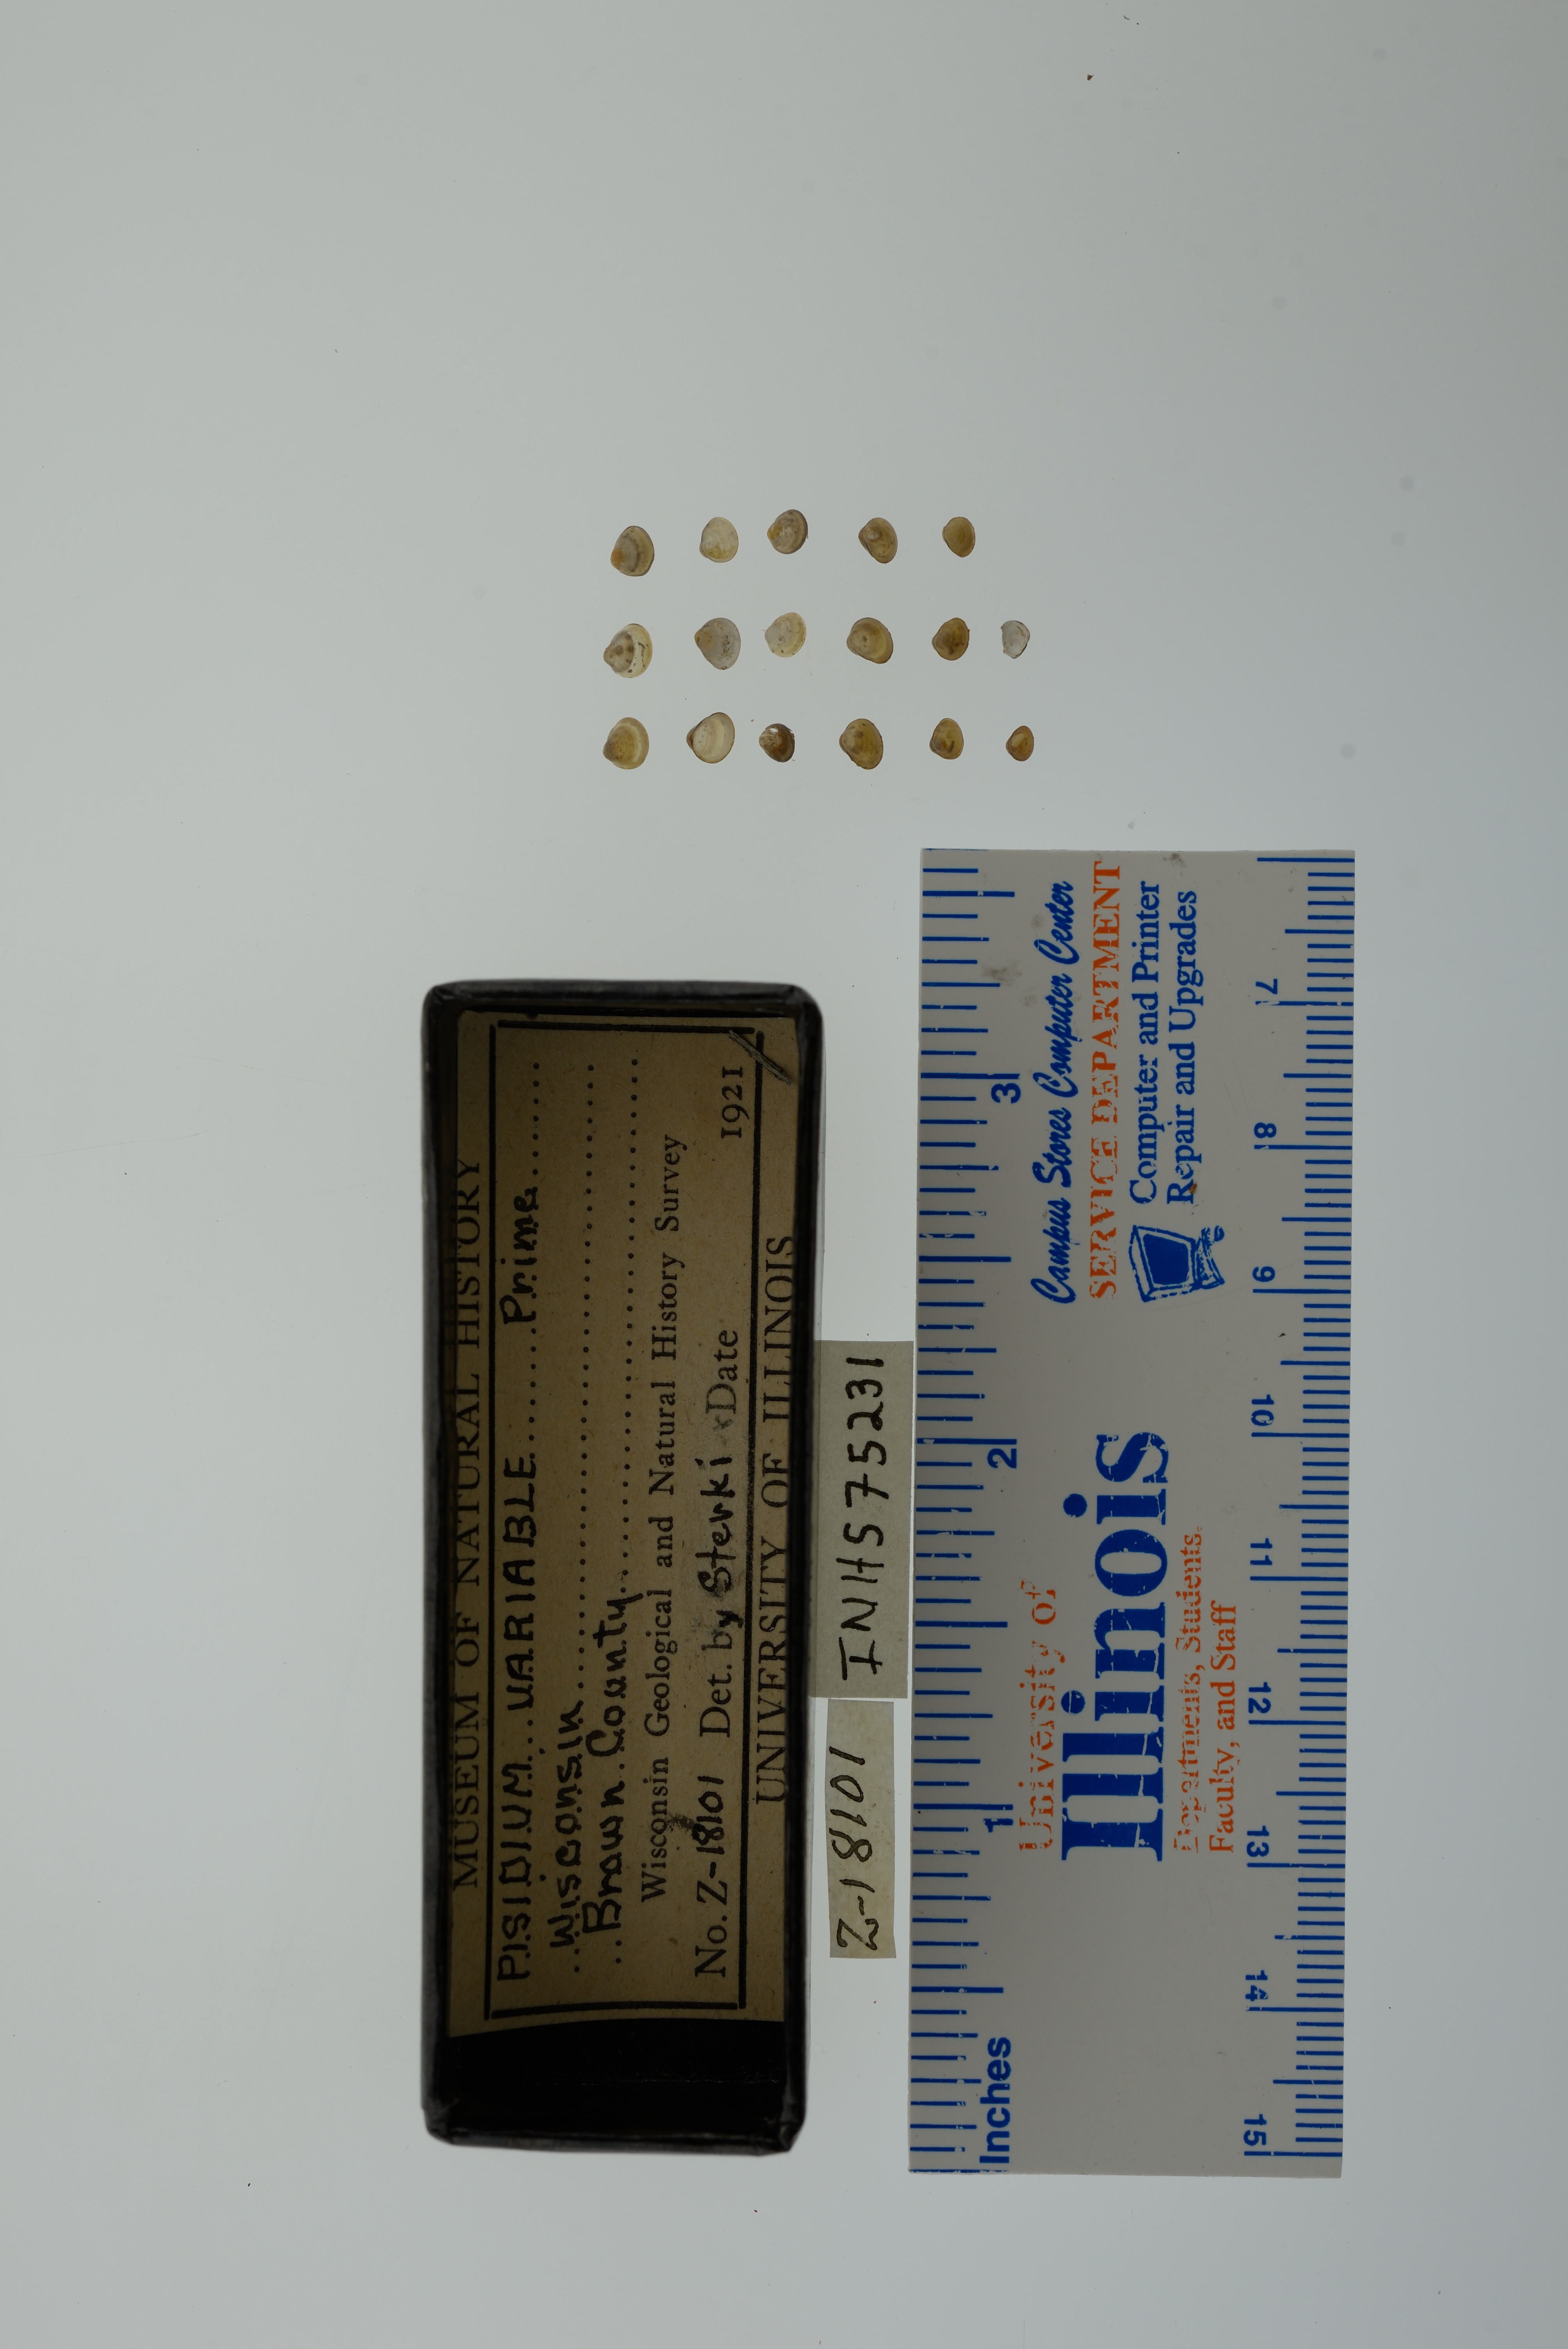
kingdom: Animalia
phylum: Mollusca
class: Bivalvia
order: Sphaeriida
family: Sphaeriidae
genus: Euglesa
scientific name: Euglesa variabilis
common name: Triangular peaclam
